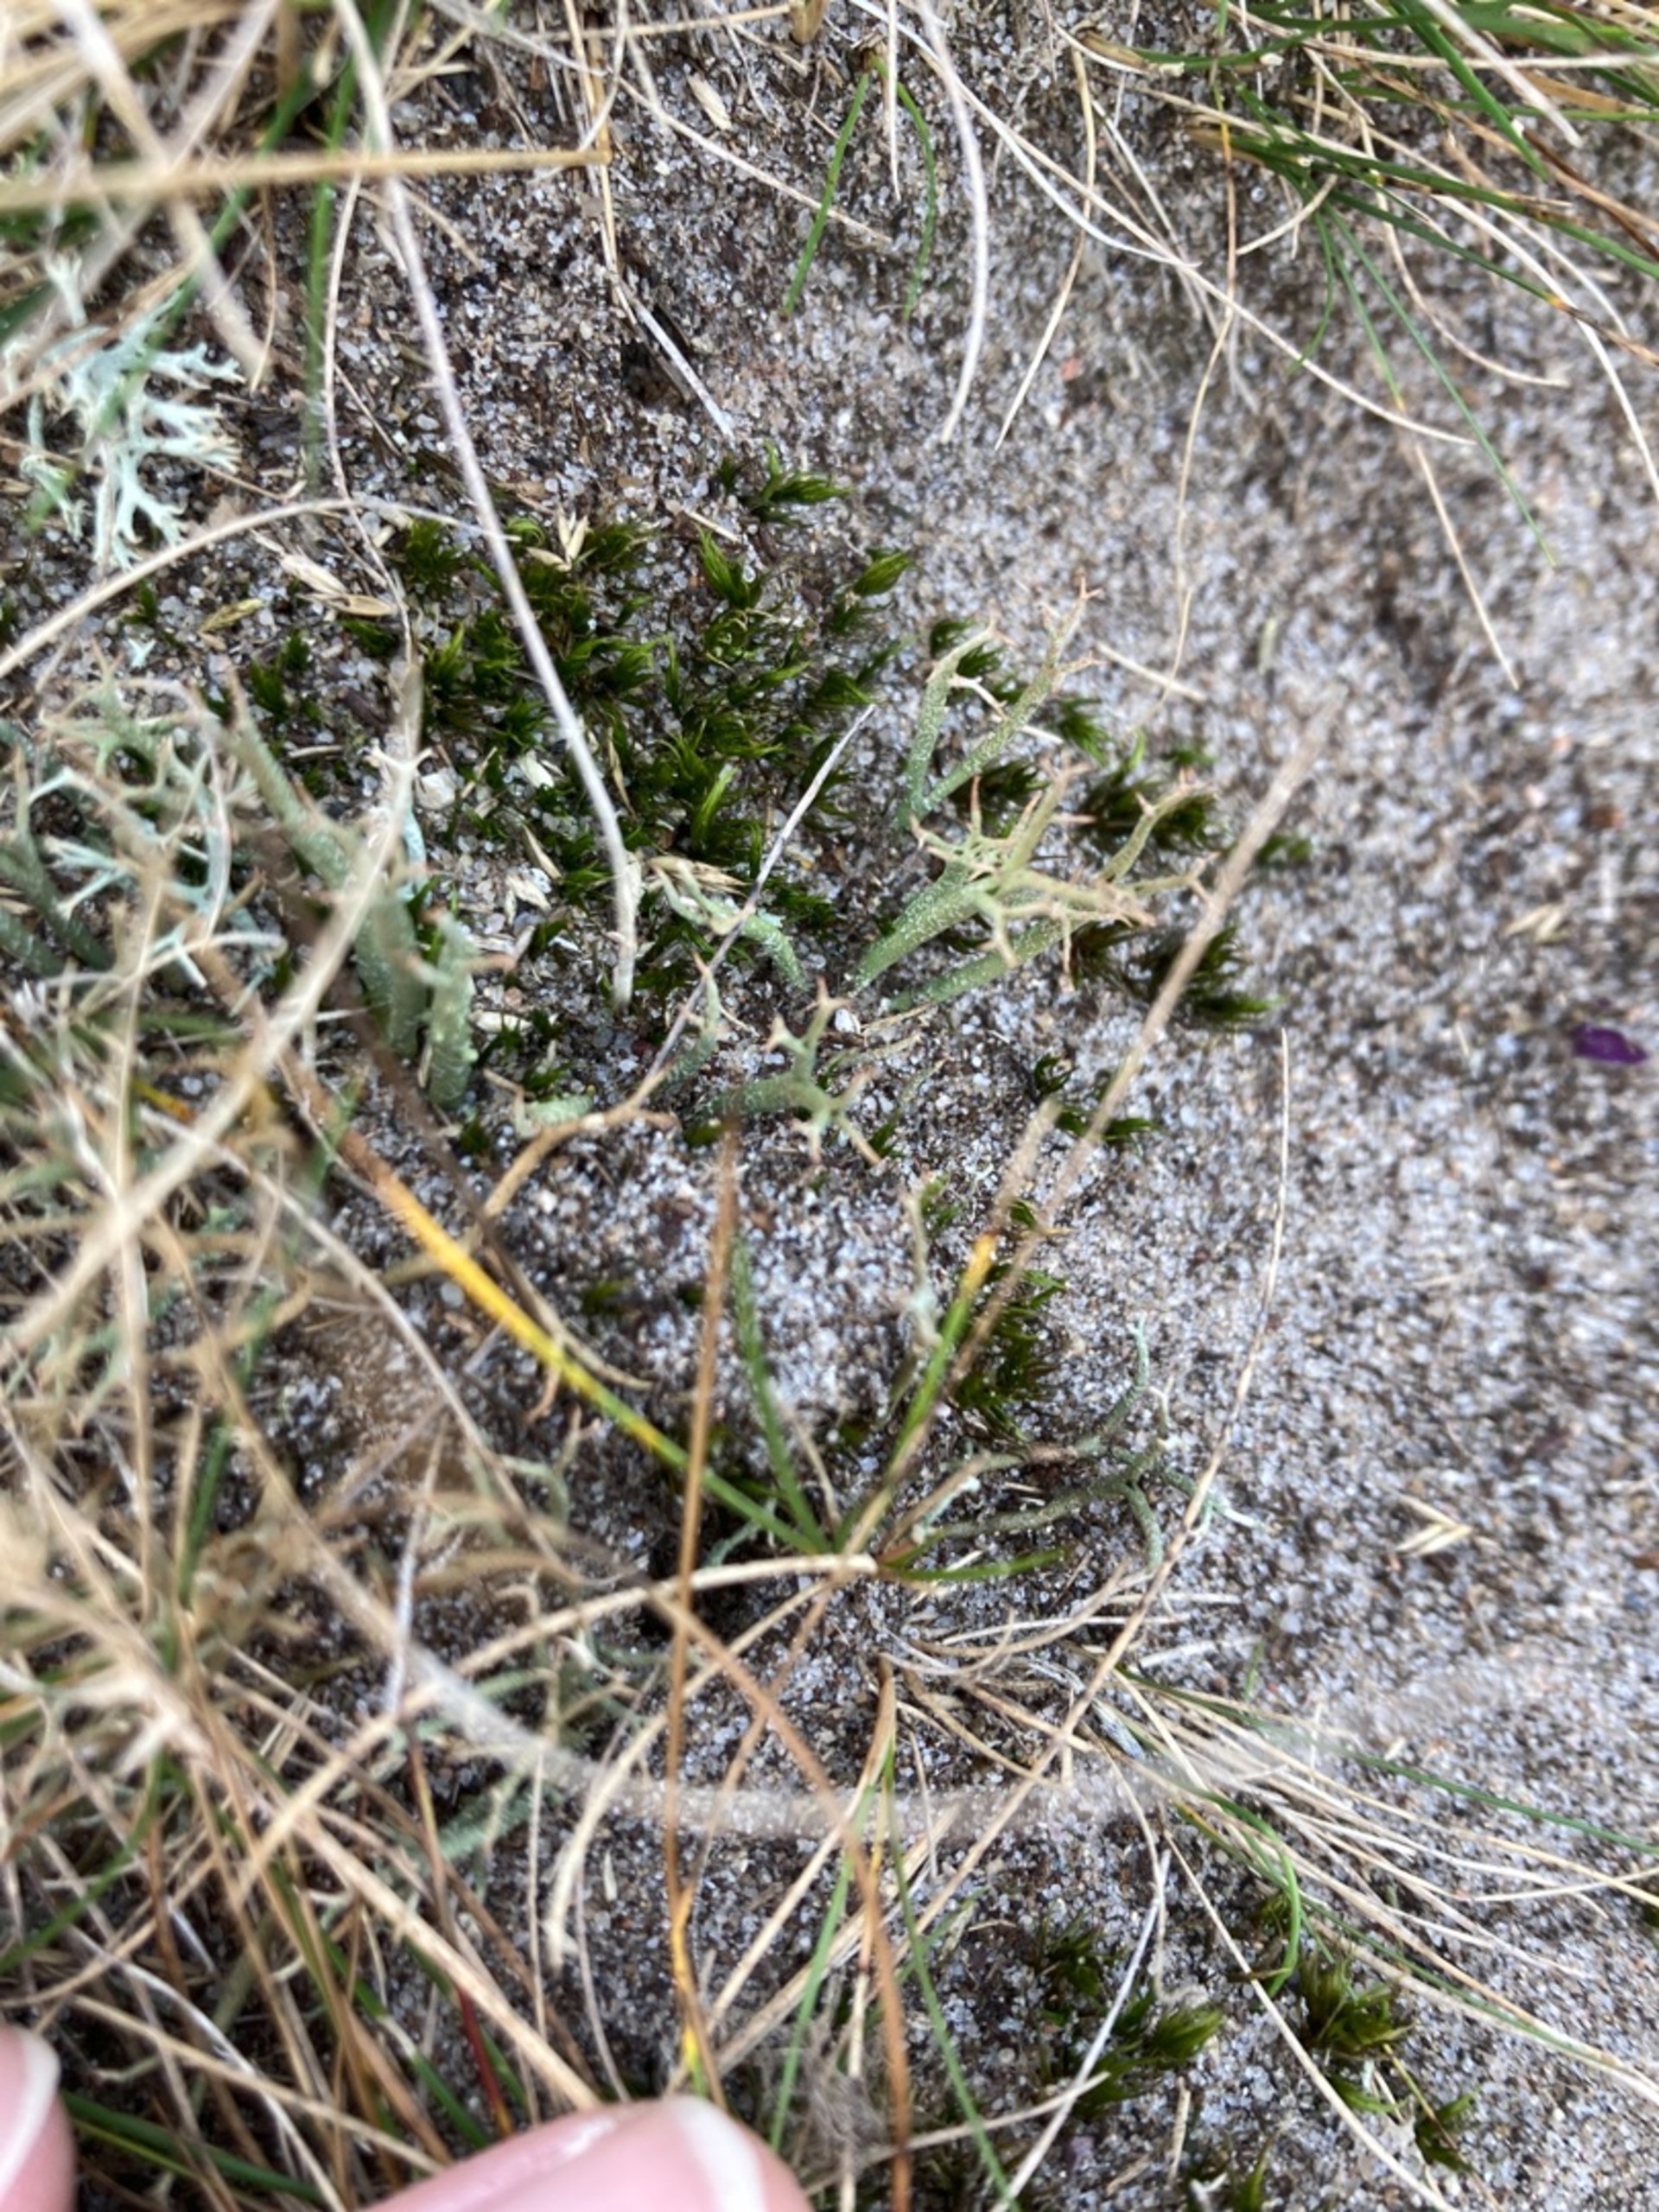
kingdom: Fungi
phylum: Ascomycota
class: Lecanoromycetes
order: Lecanorales
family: Cladoniaceae
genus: Cladonia
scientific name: Cladonia
